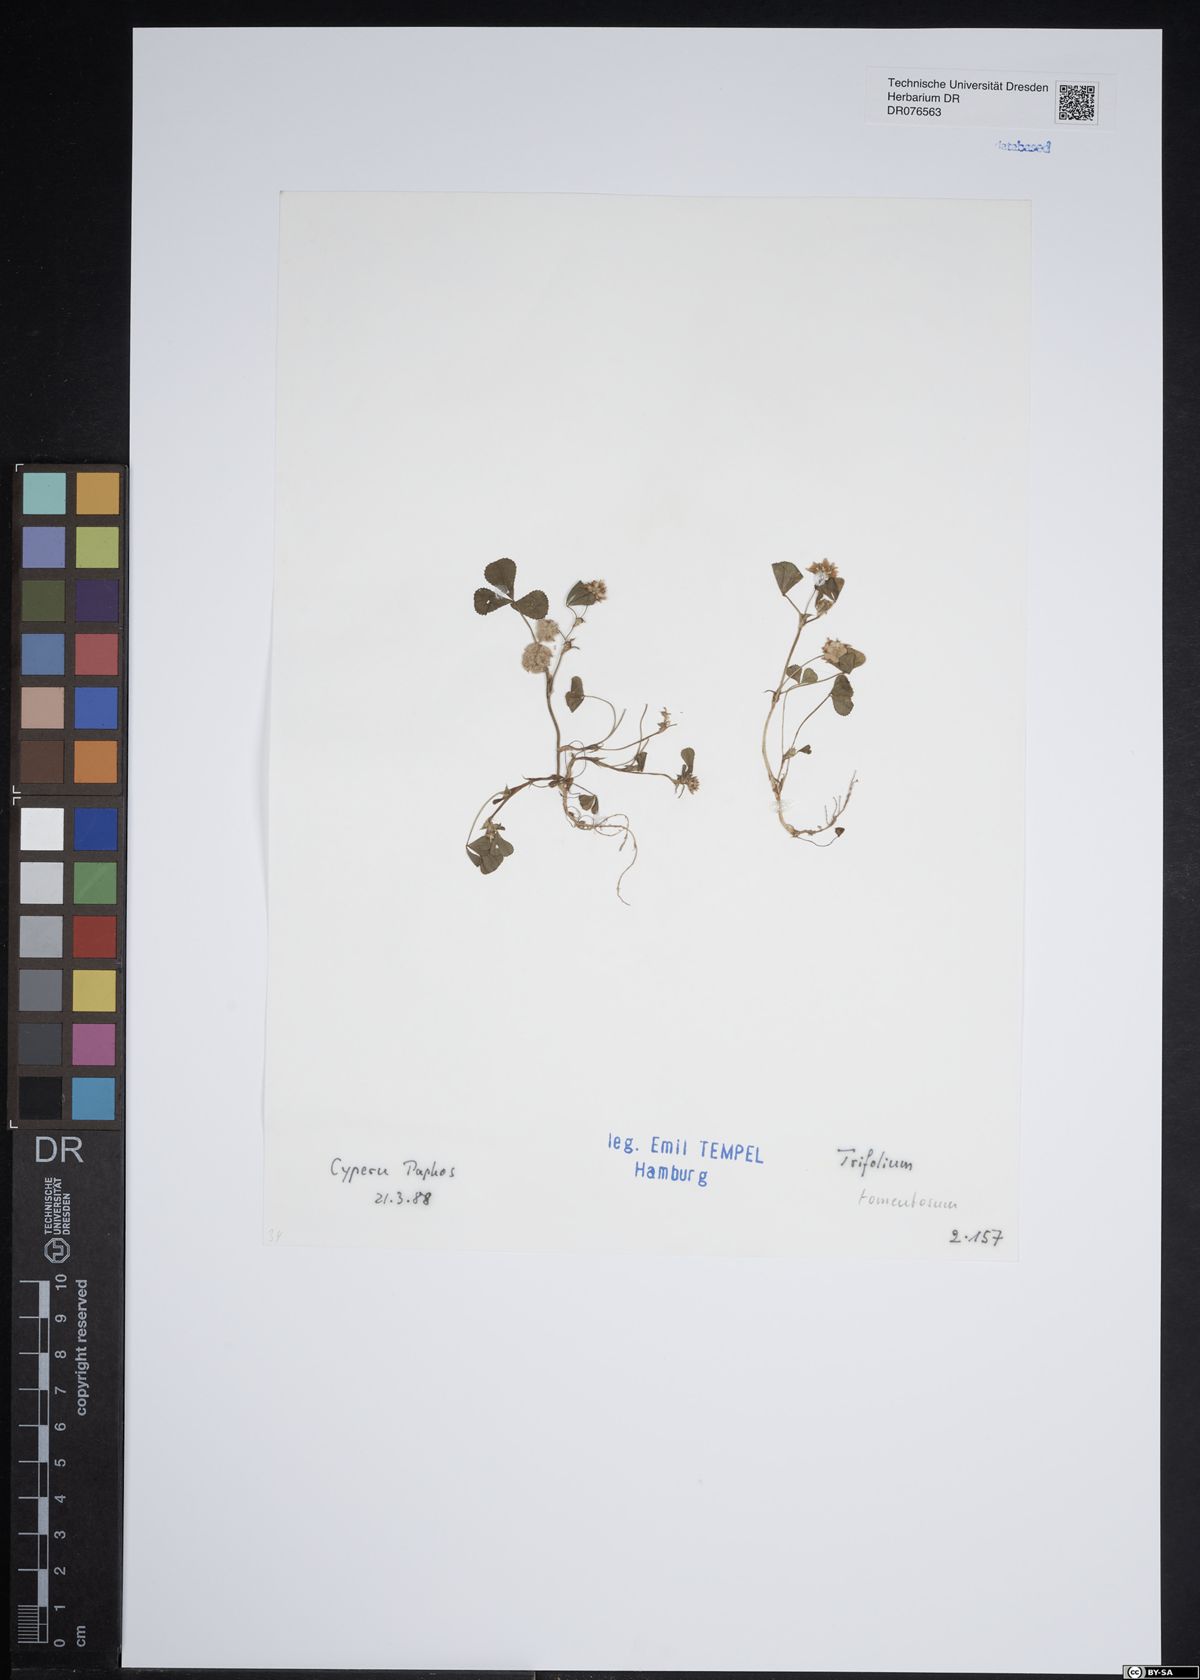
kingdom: Plantae
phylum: Tracheophyta
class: Magnoliopsida
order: Fabales
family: Fabaceae
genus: Trifolium
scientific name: Trifolium tomentosum
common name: Woolly clover
